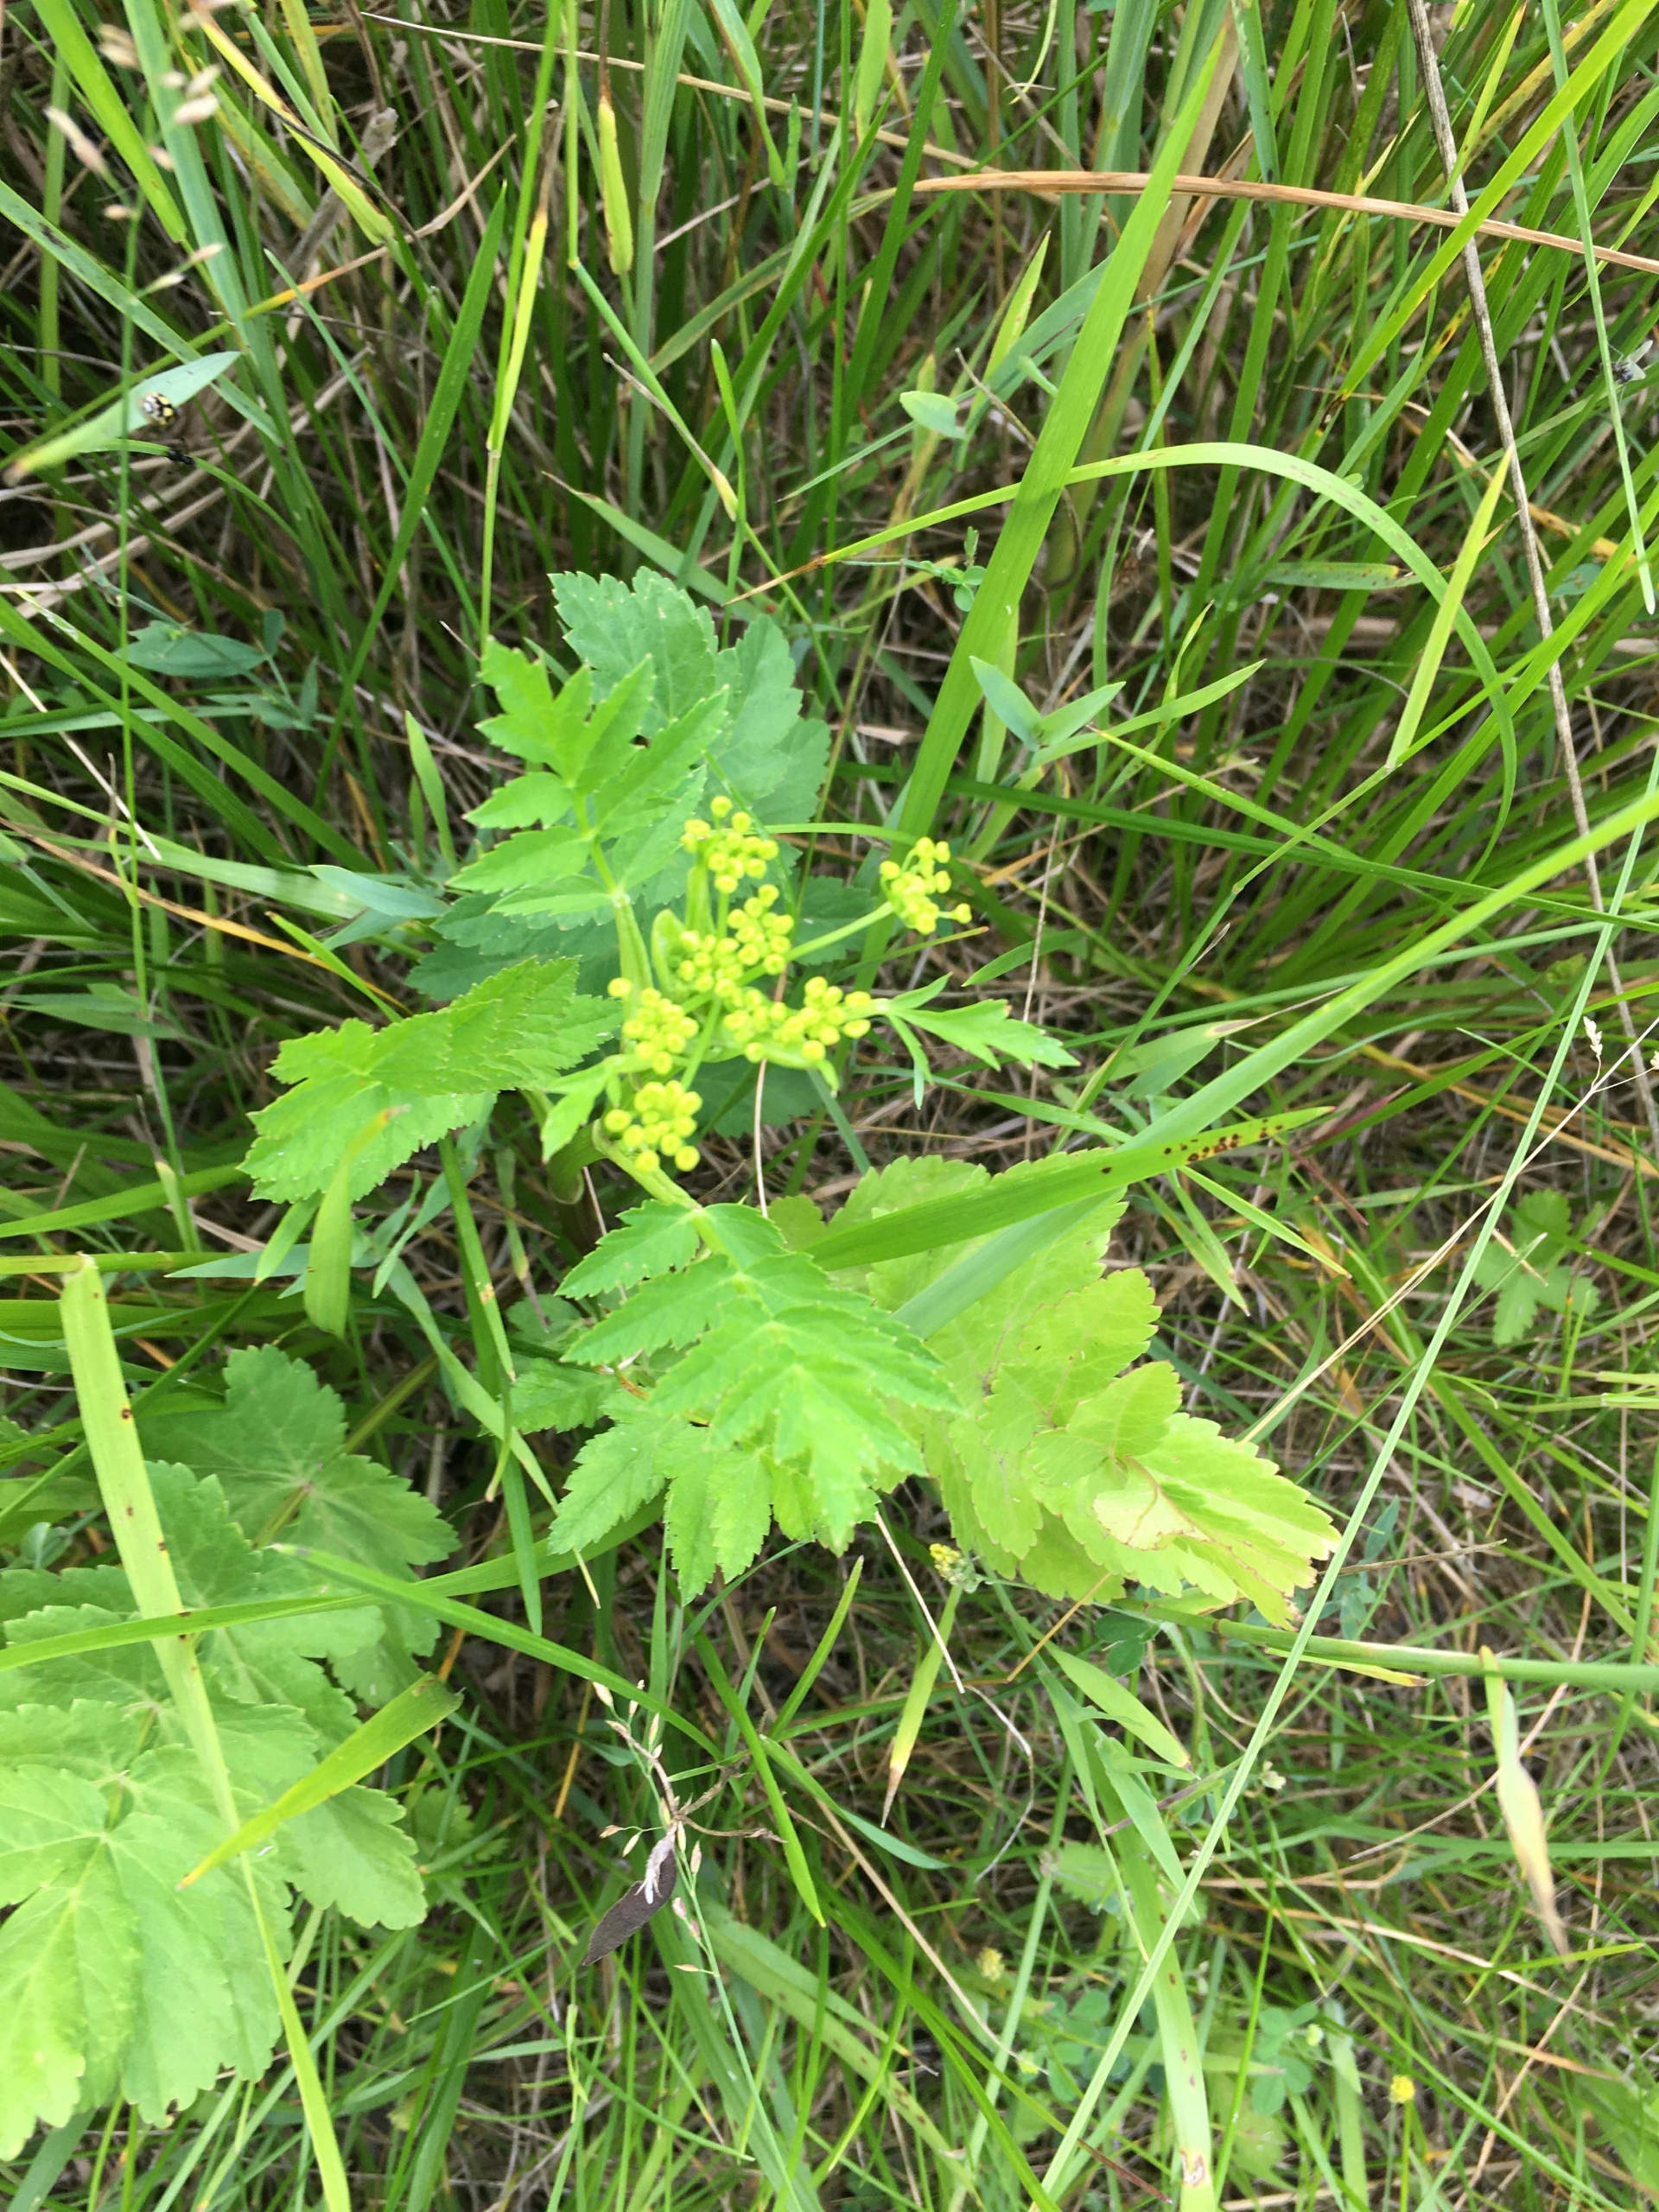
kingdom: Plantae
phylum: Tracheophyta
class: Magnoliopsida
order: Apiales
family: Apiaceae
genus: Pastinaca
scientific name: Pastinaca sativa
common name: Pastinak
